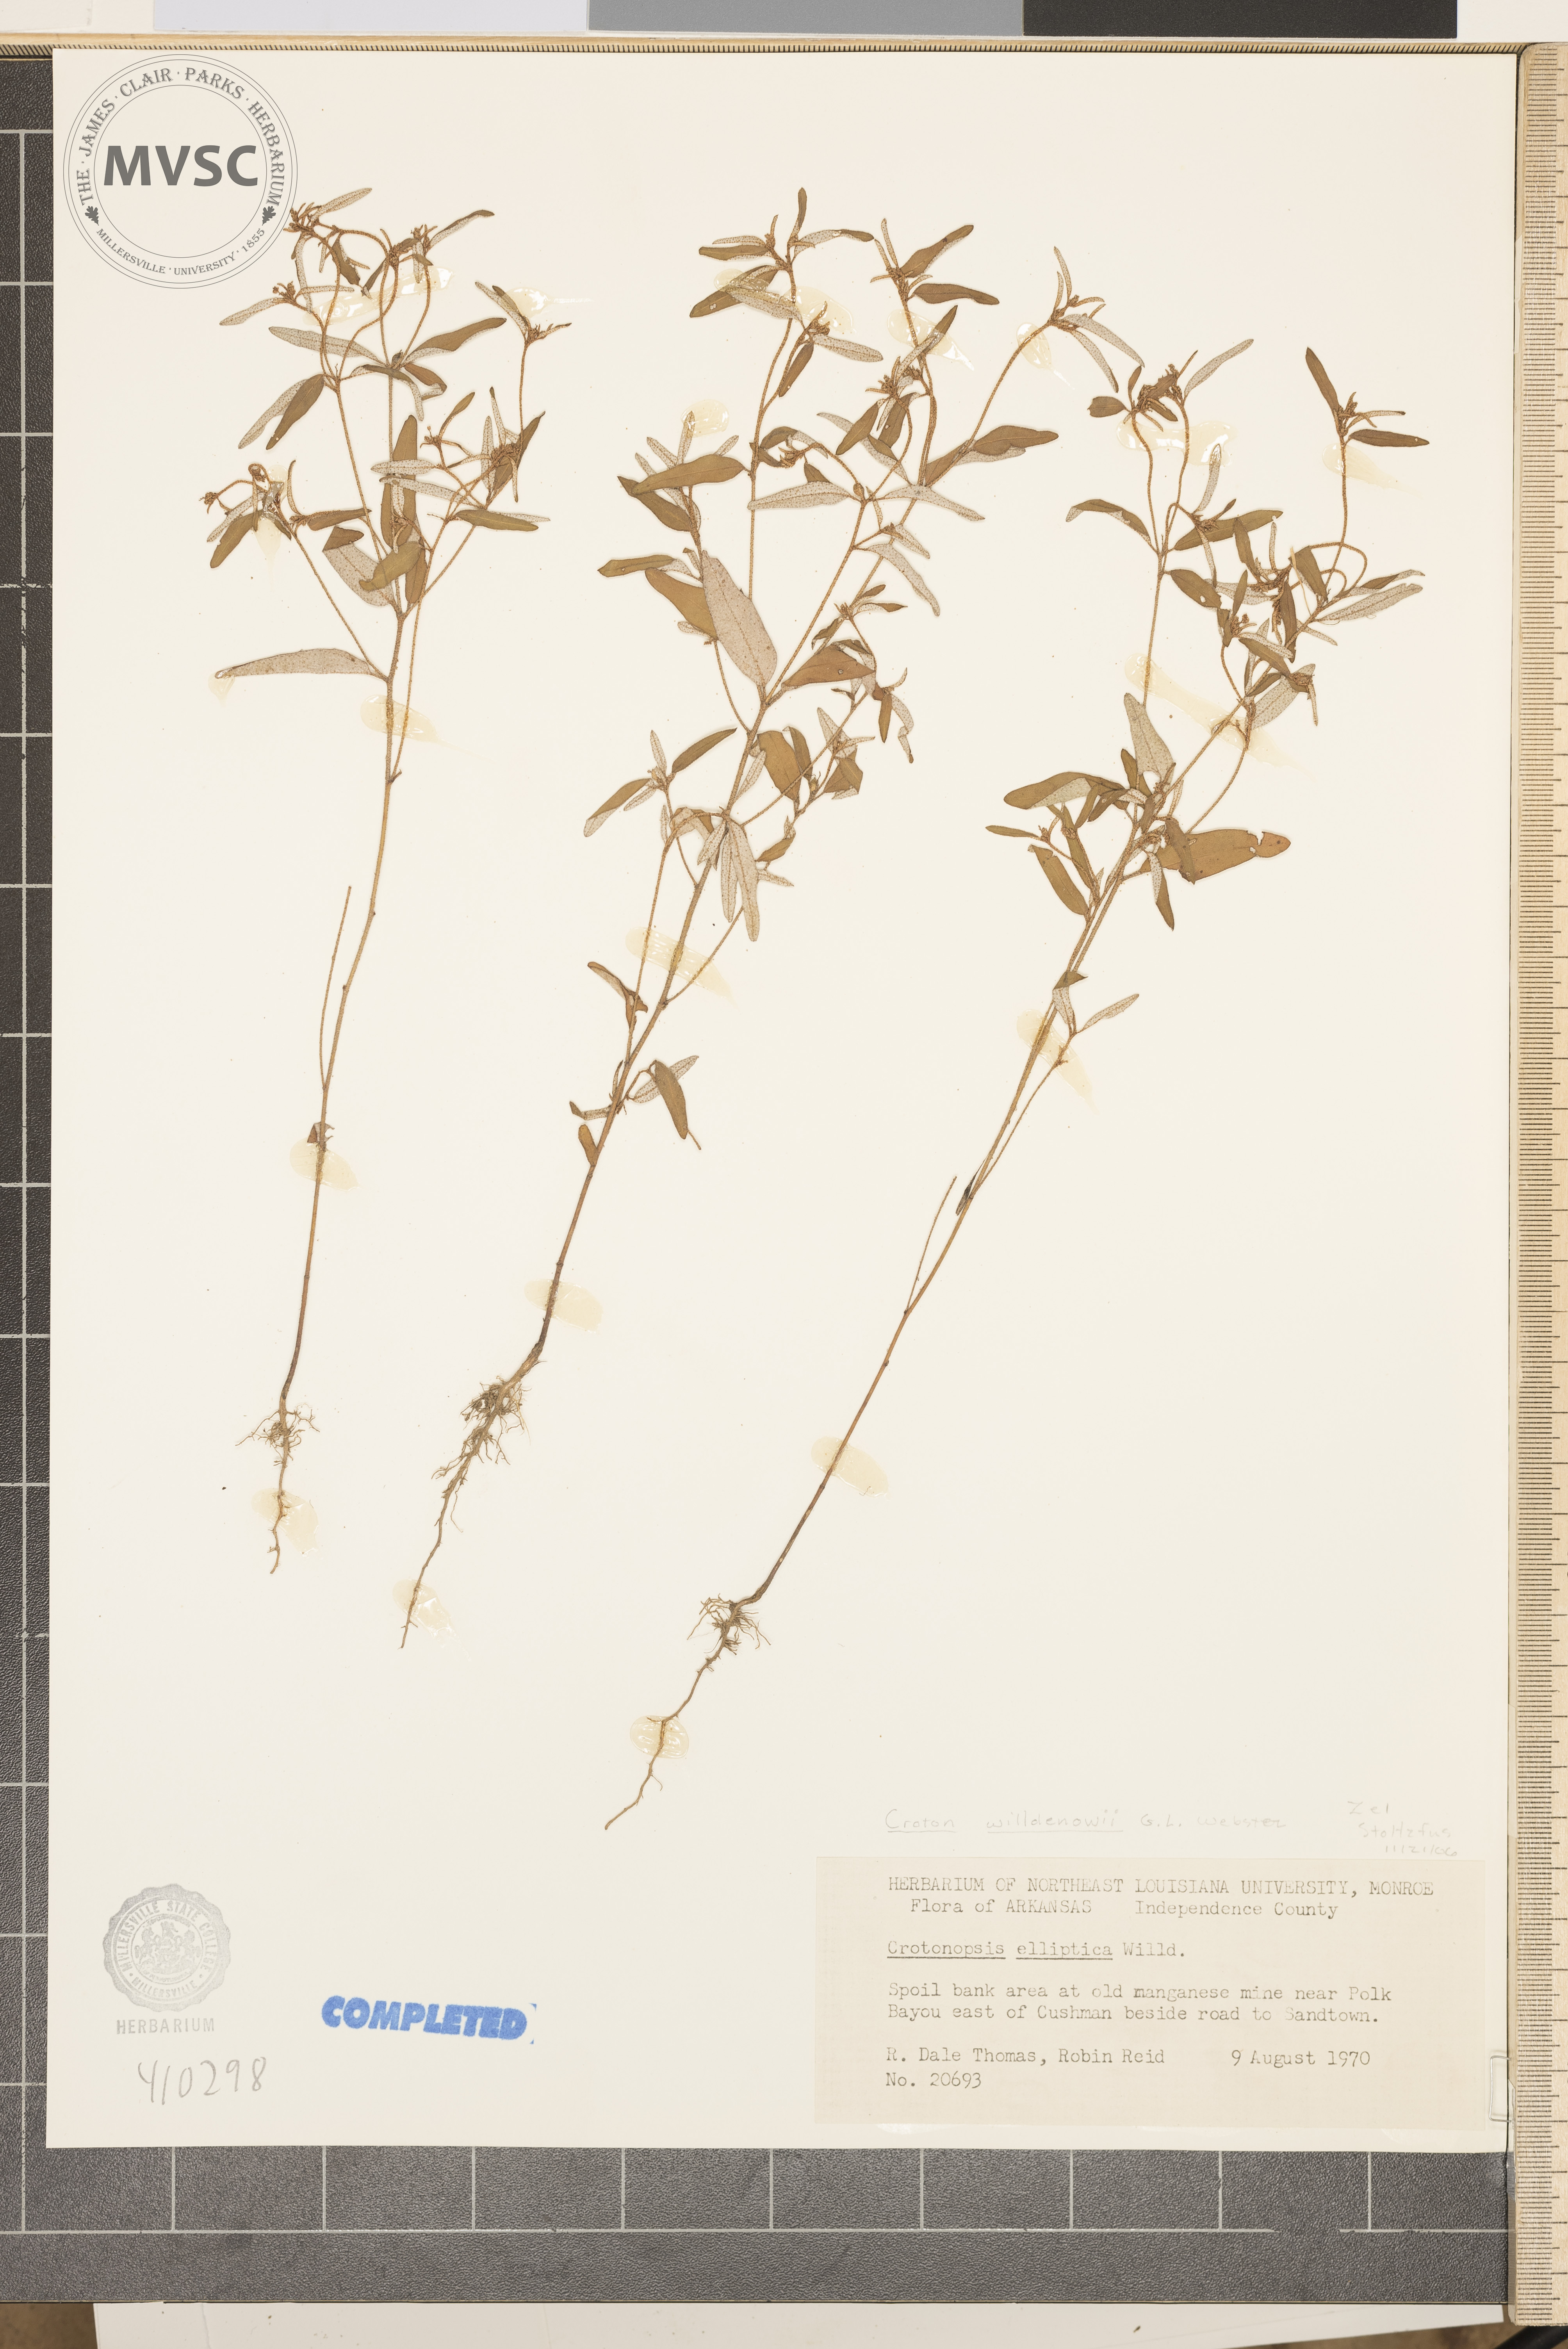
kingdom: Plantae
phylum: Tracheophyta
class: Magnoliopsida
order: Malpighiales
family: Euphorbiaceae
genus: Croton
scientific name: Croton michauxii
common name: Willdenow's croton
